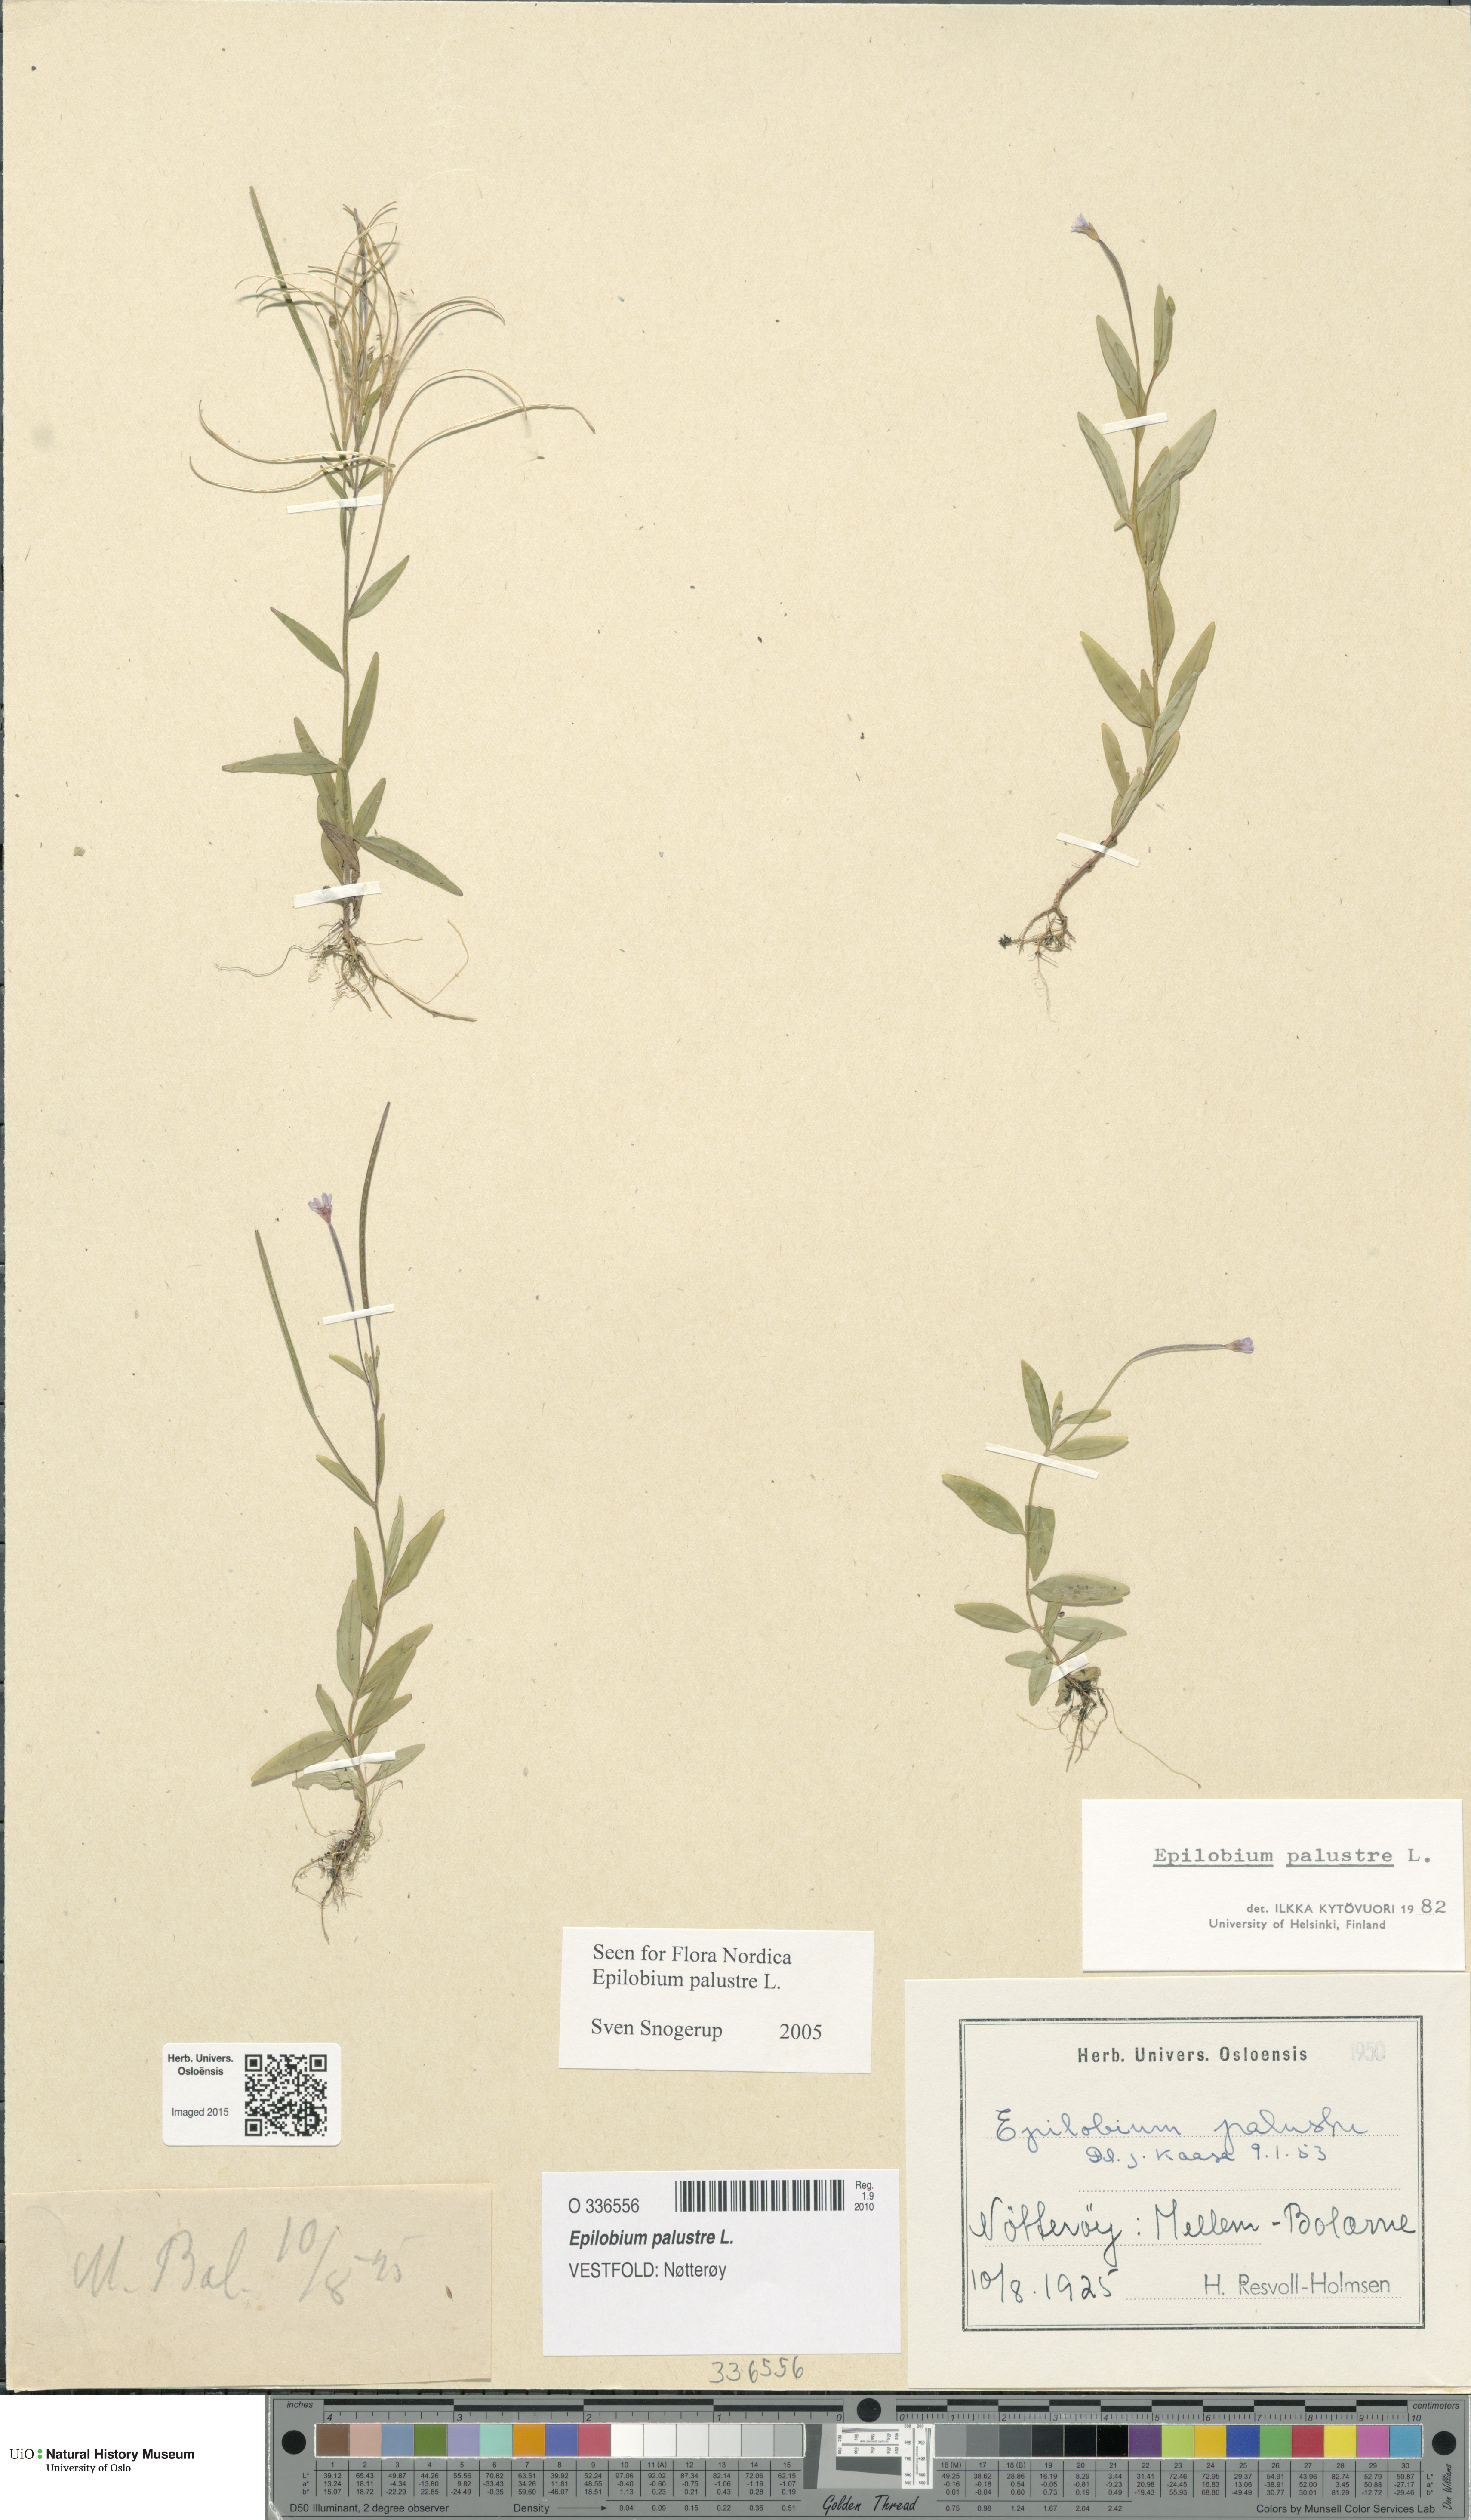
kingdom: Plantae
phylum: Tracheophyta
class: Magnoliopsida
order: Myrtales
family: Onagraceae
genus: Epilobium
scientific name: Epilobium palustre
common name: Marsh willowherb
